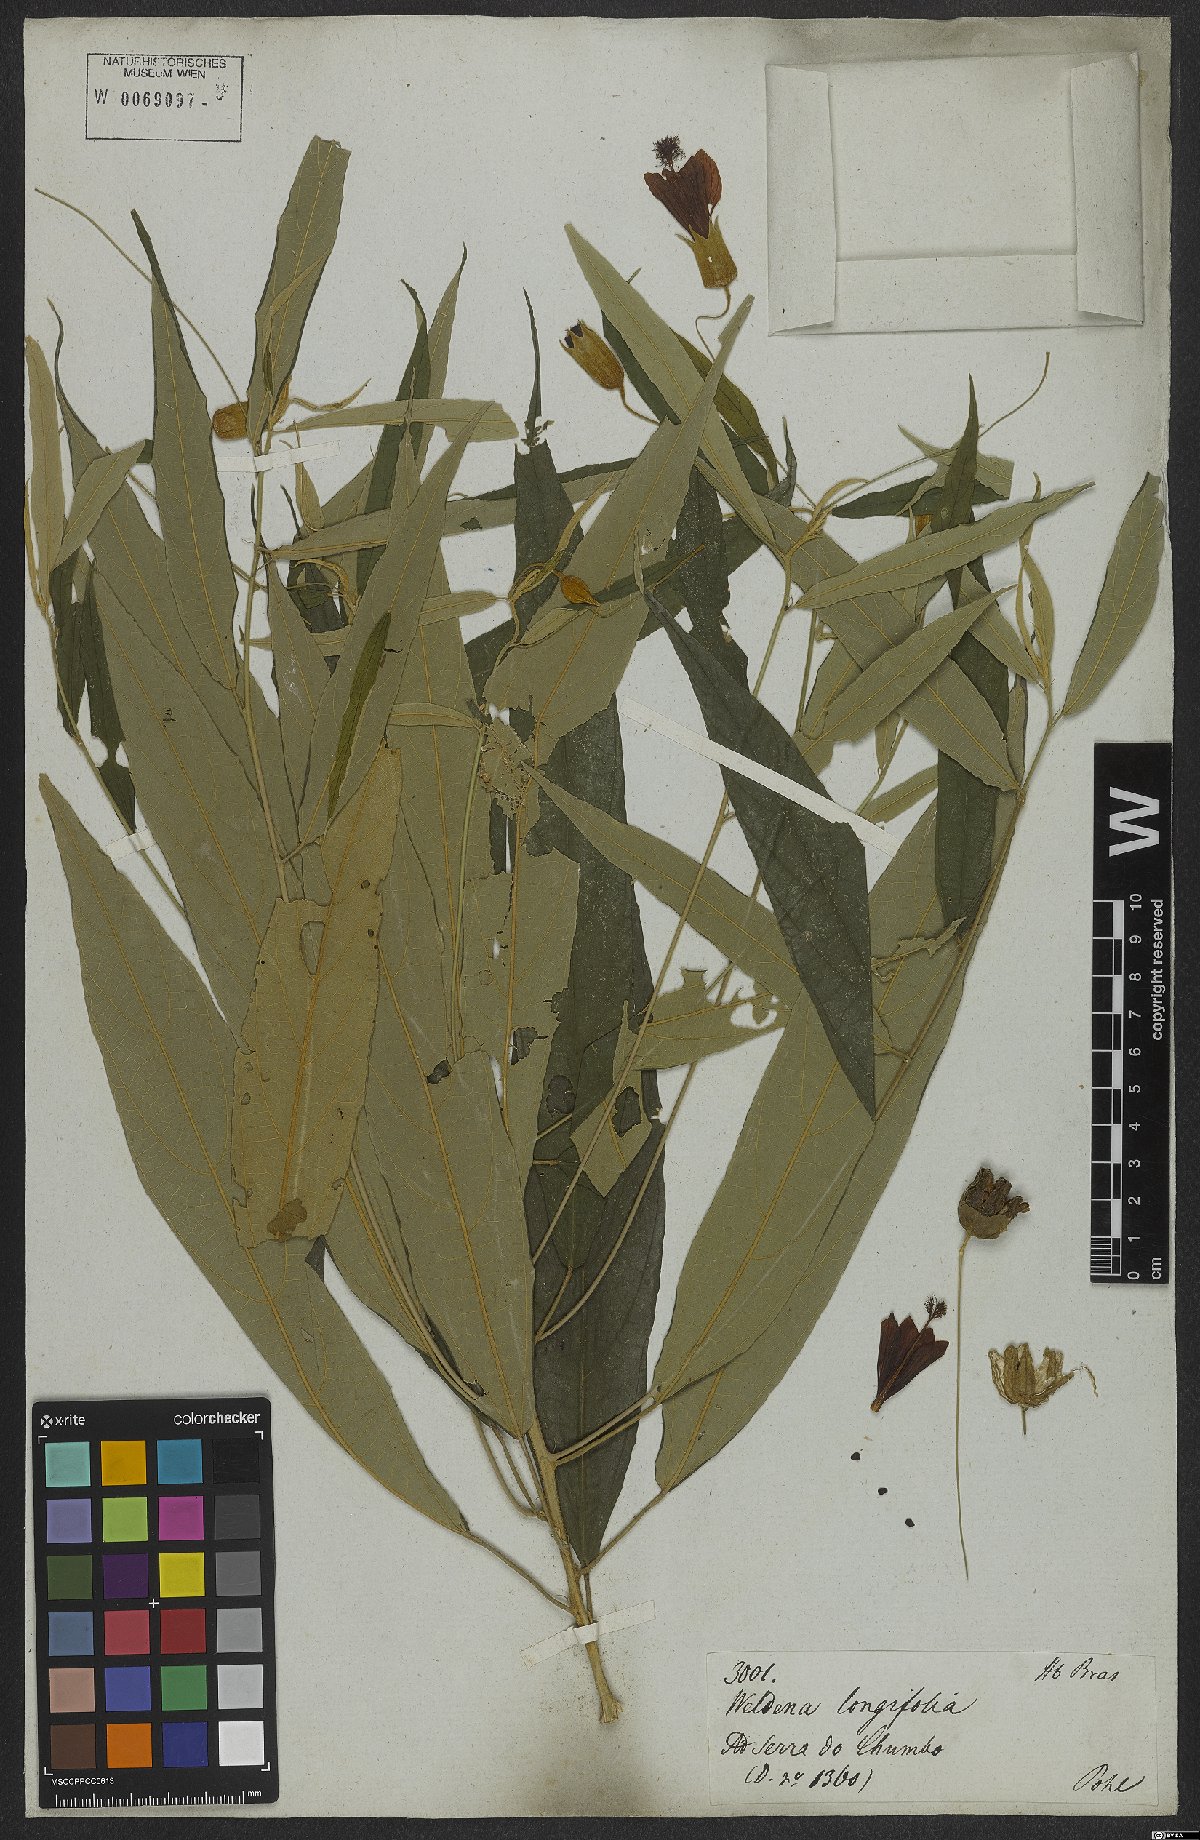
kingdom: Plantae
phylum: Tracheophyta
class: Magnoliopsida
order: Malvales
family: Malvaceae
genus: Callianthe
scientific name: Callianthe longifolia
